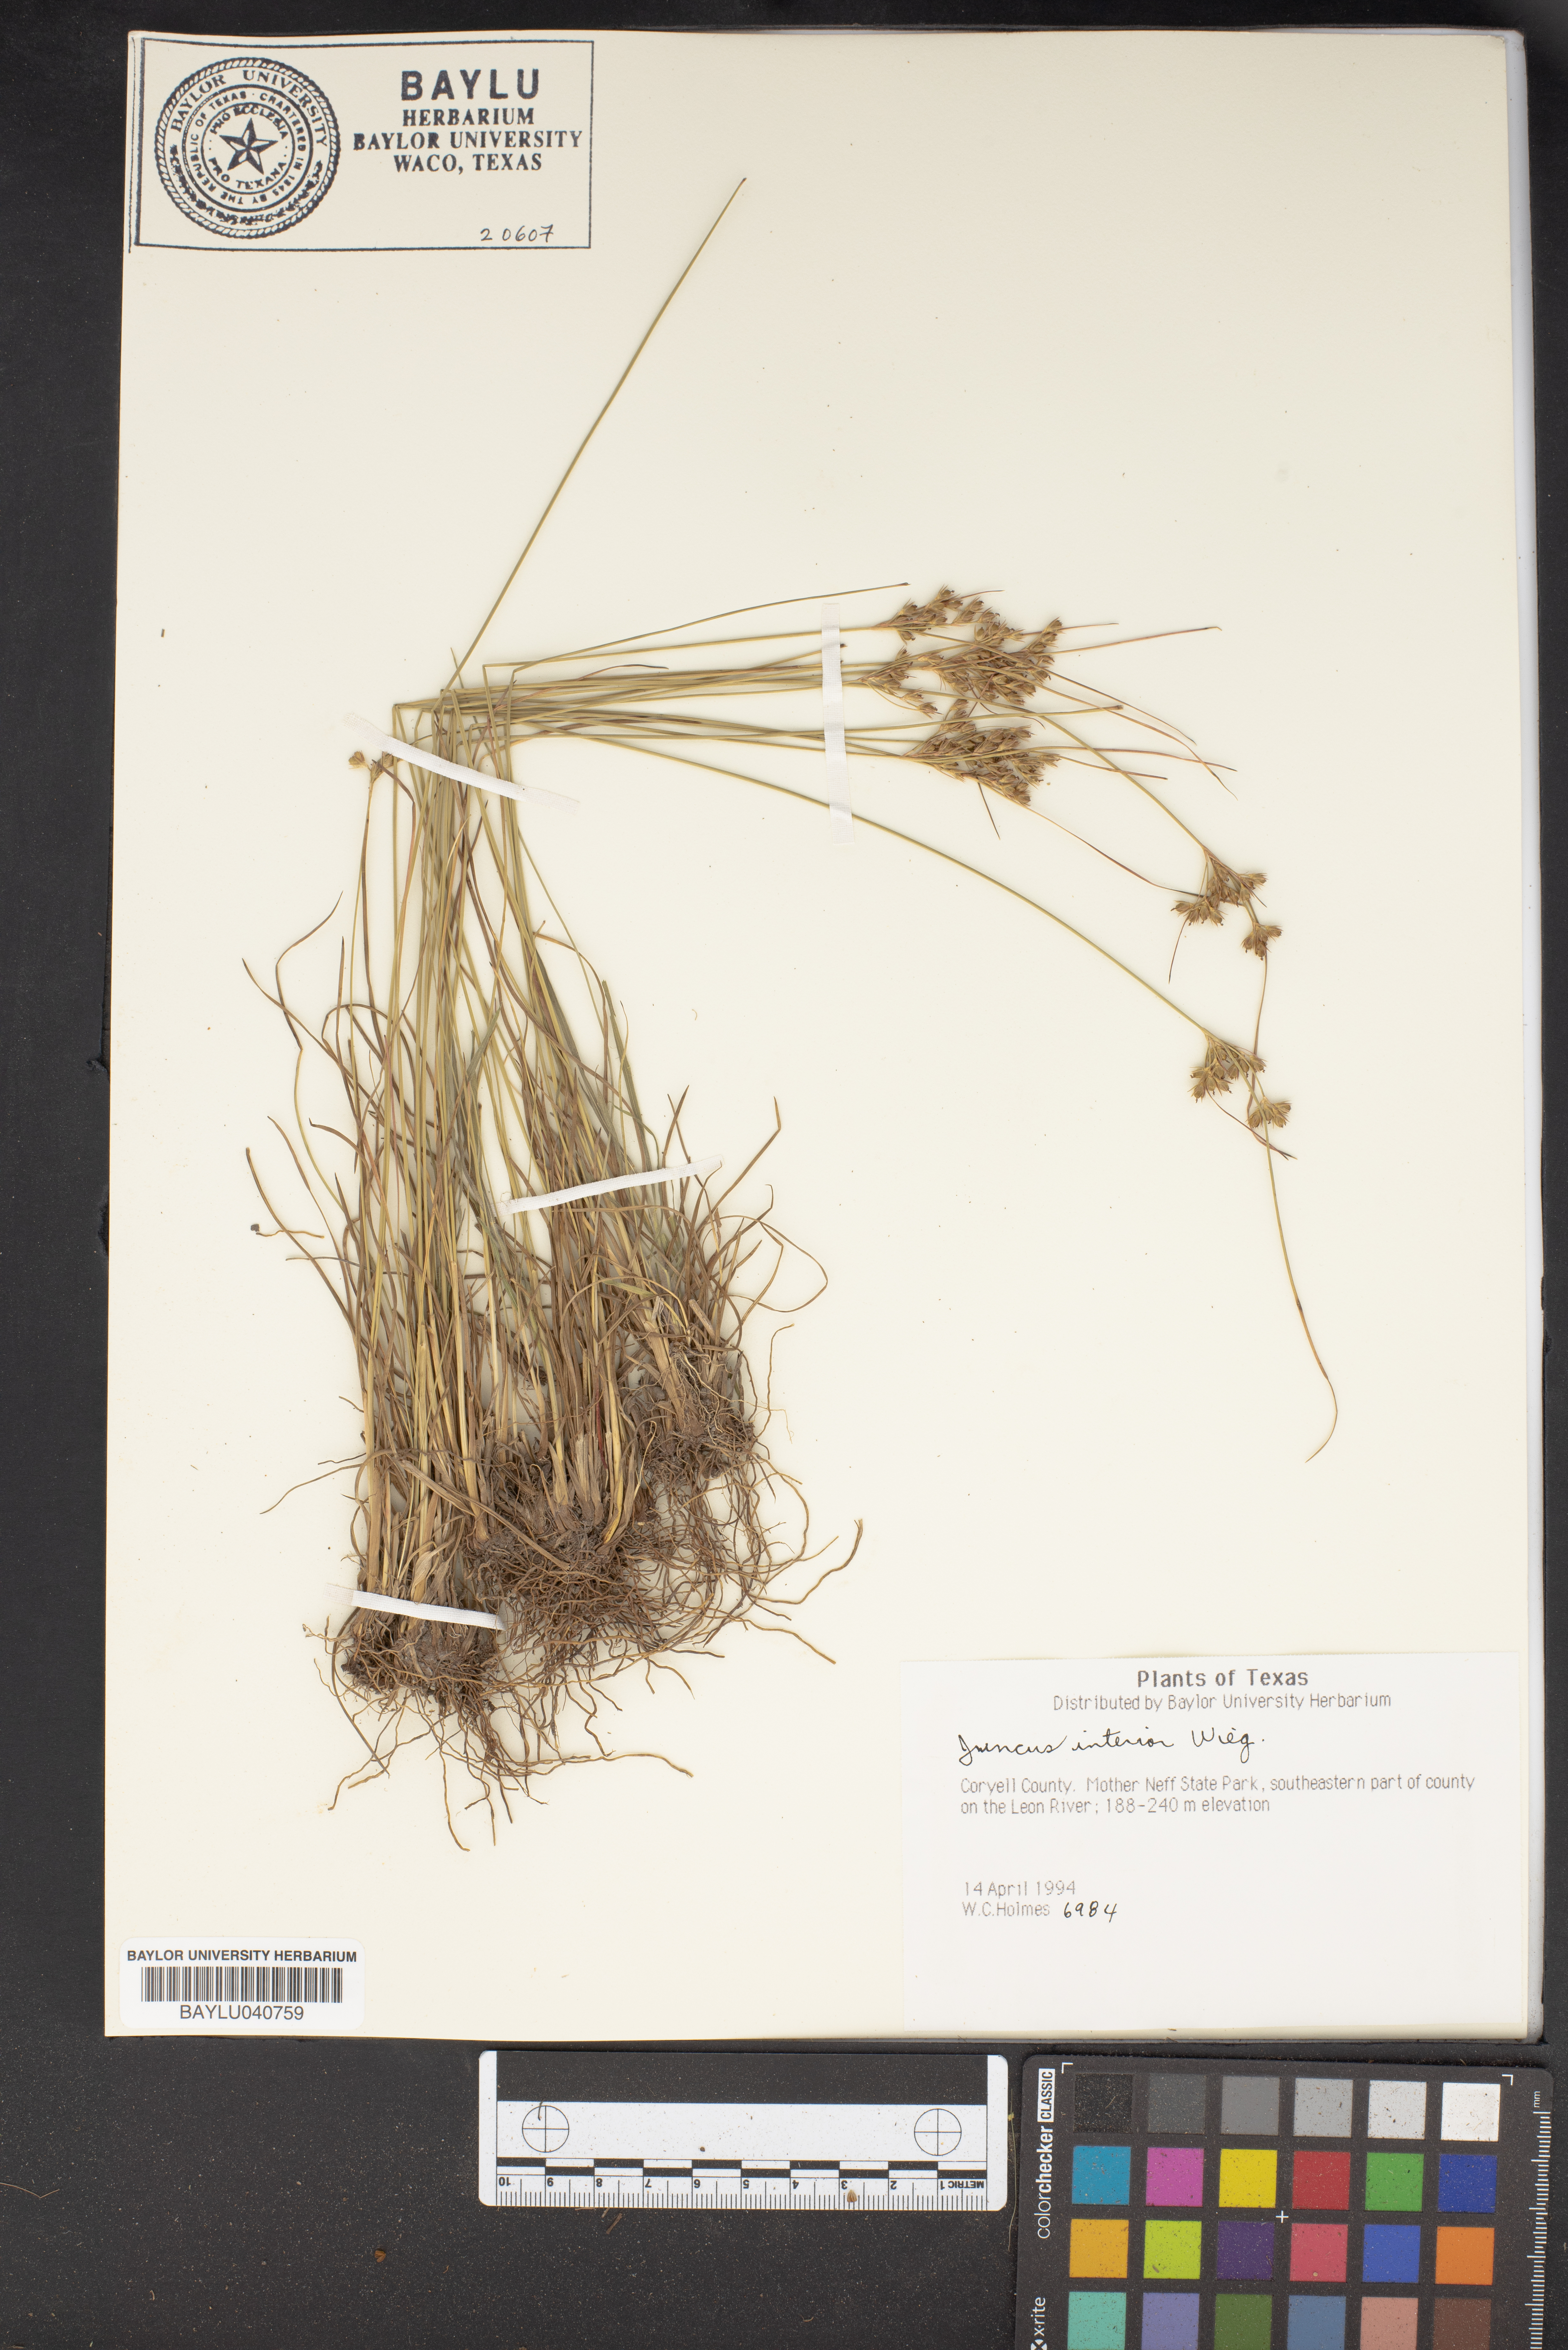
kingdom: Plantae
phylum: Tracheophyta
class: Liliopsida
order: Poales
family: Juncaceae
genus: Juncus
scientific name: Juncus interior
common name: Interior rush
